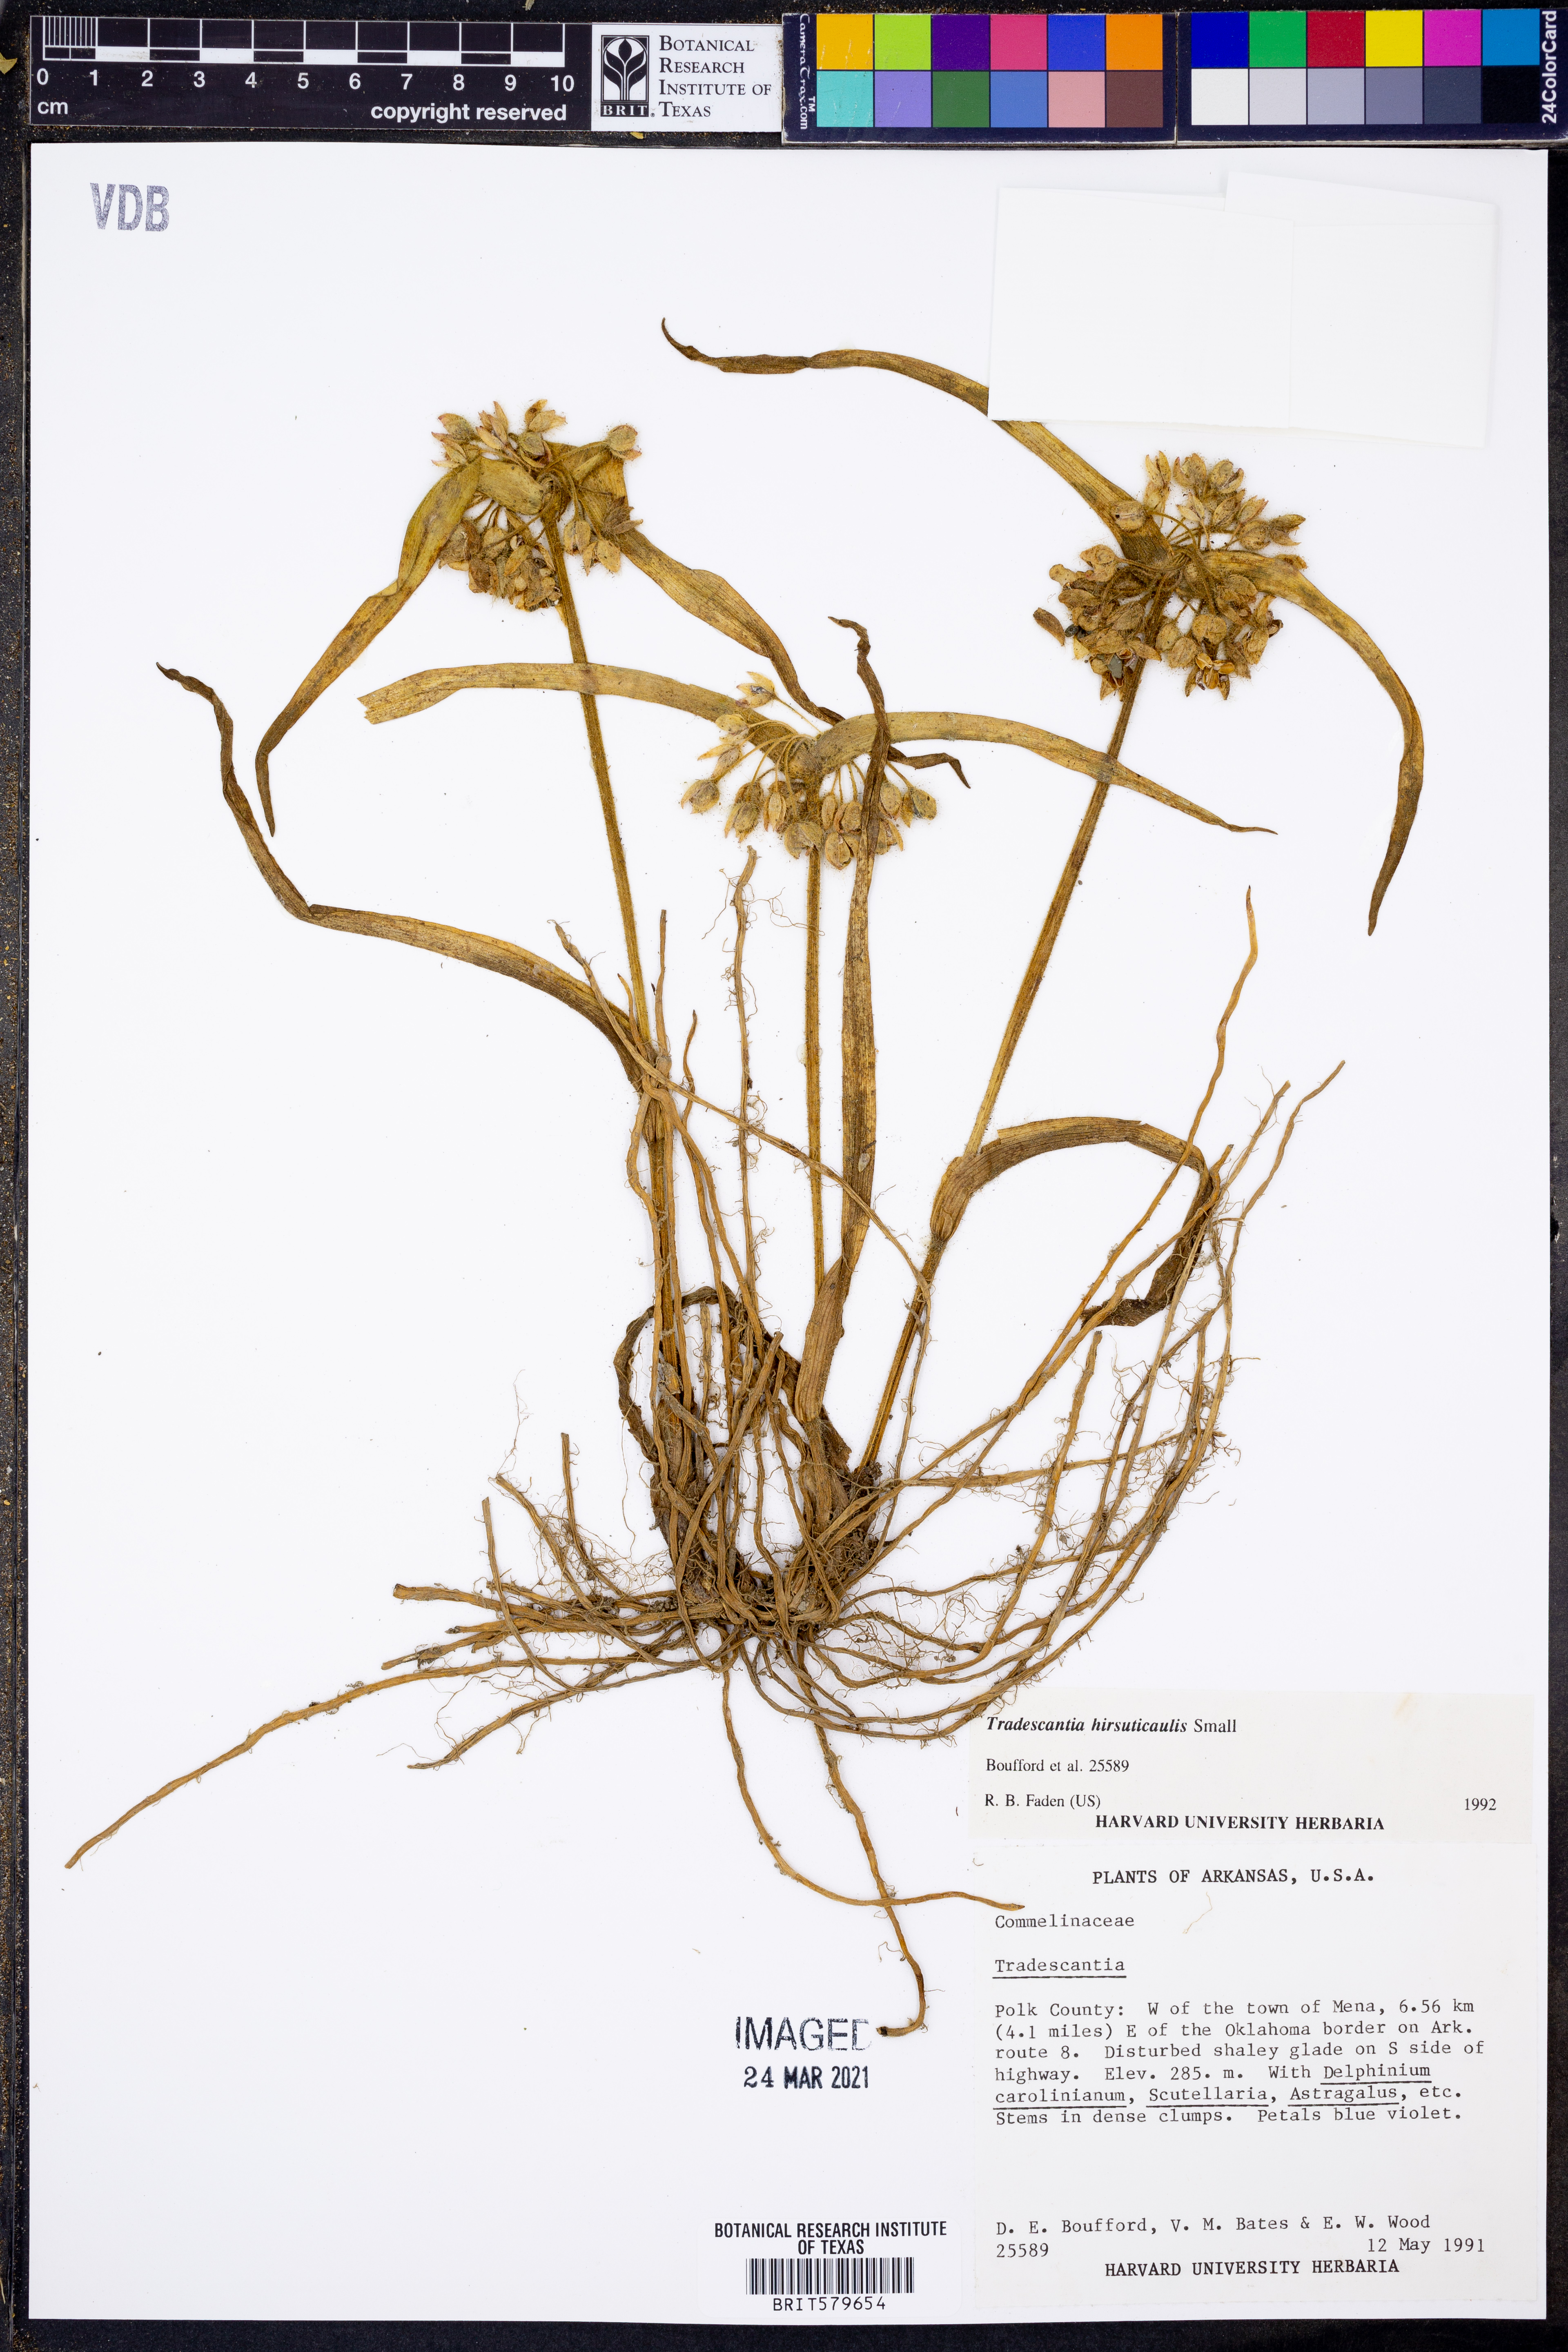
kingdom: Plantae
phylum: Tracheophyta
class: Liliopsida
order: Commelinales
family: Commelinaceae
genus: Tradescantia
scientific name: Tradescantia hirsuticaulis
